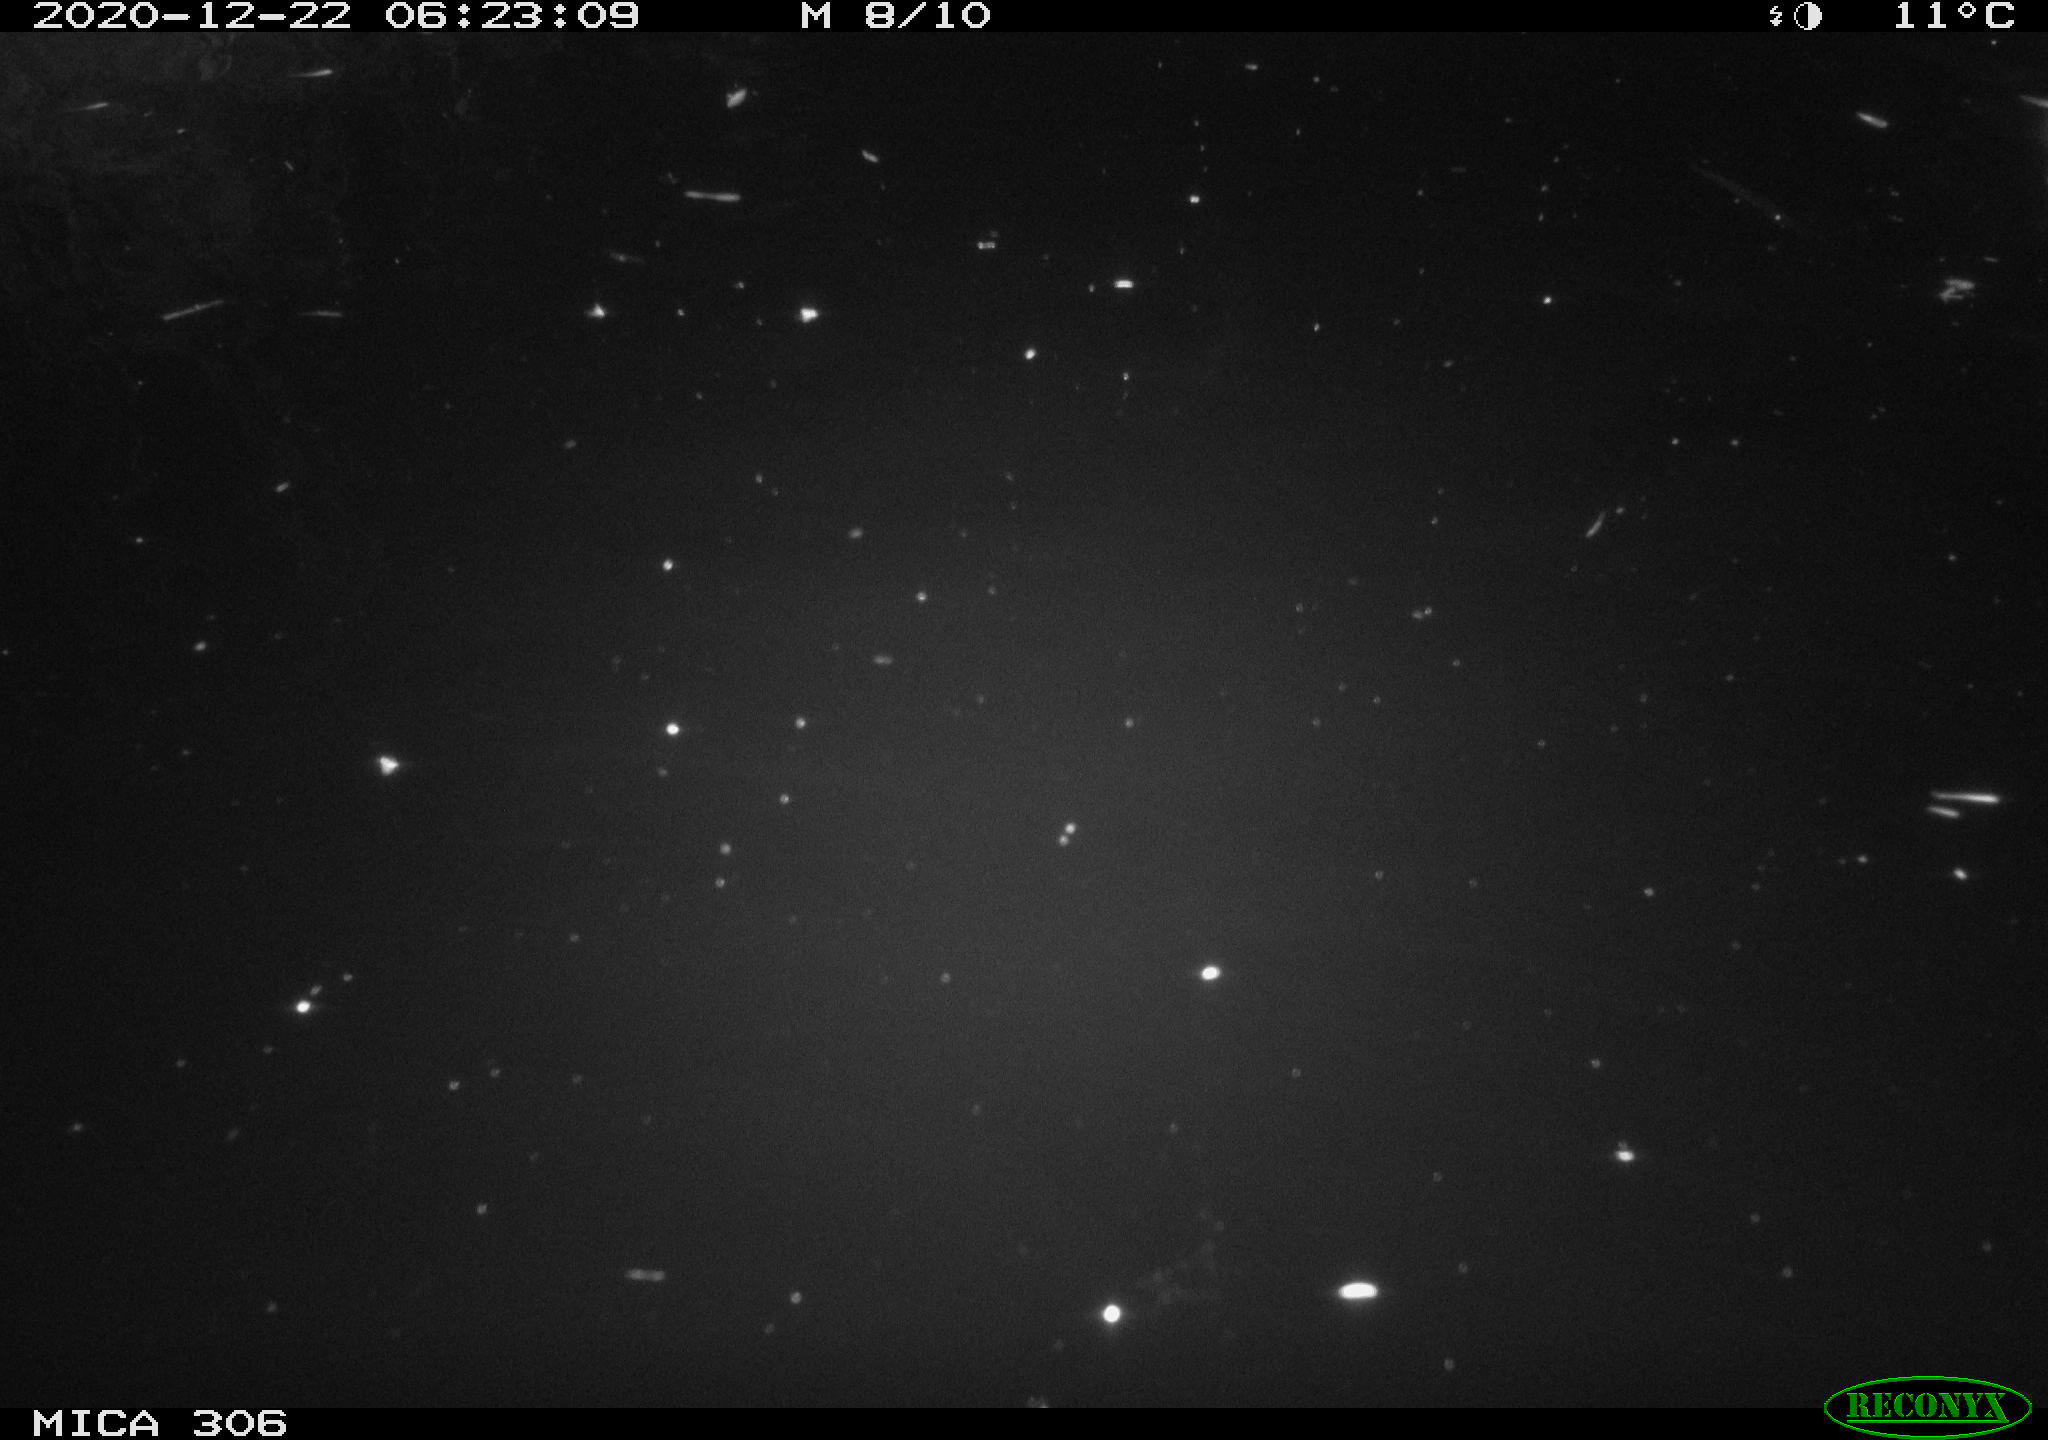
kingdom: Animalia
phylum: Chordata
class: Mammalia
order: Rodentia
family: Cricetidae
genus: Ondatra
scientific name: Ondatra zibethicus
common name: Muskrat
